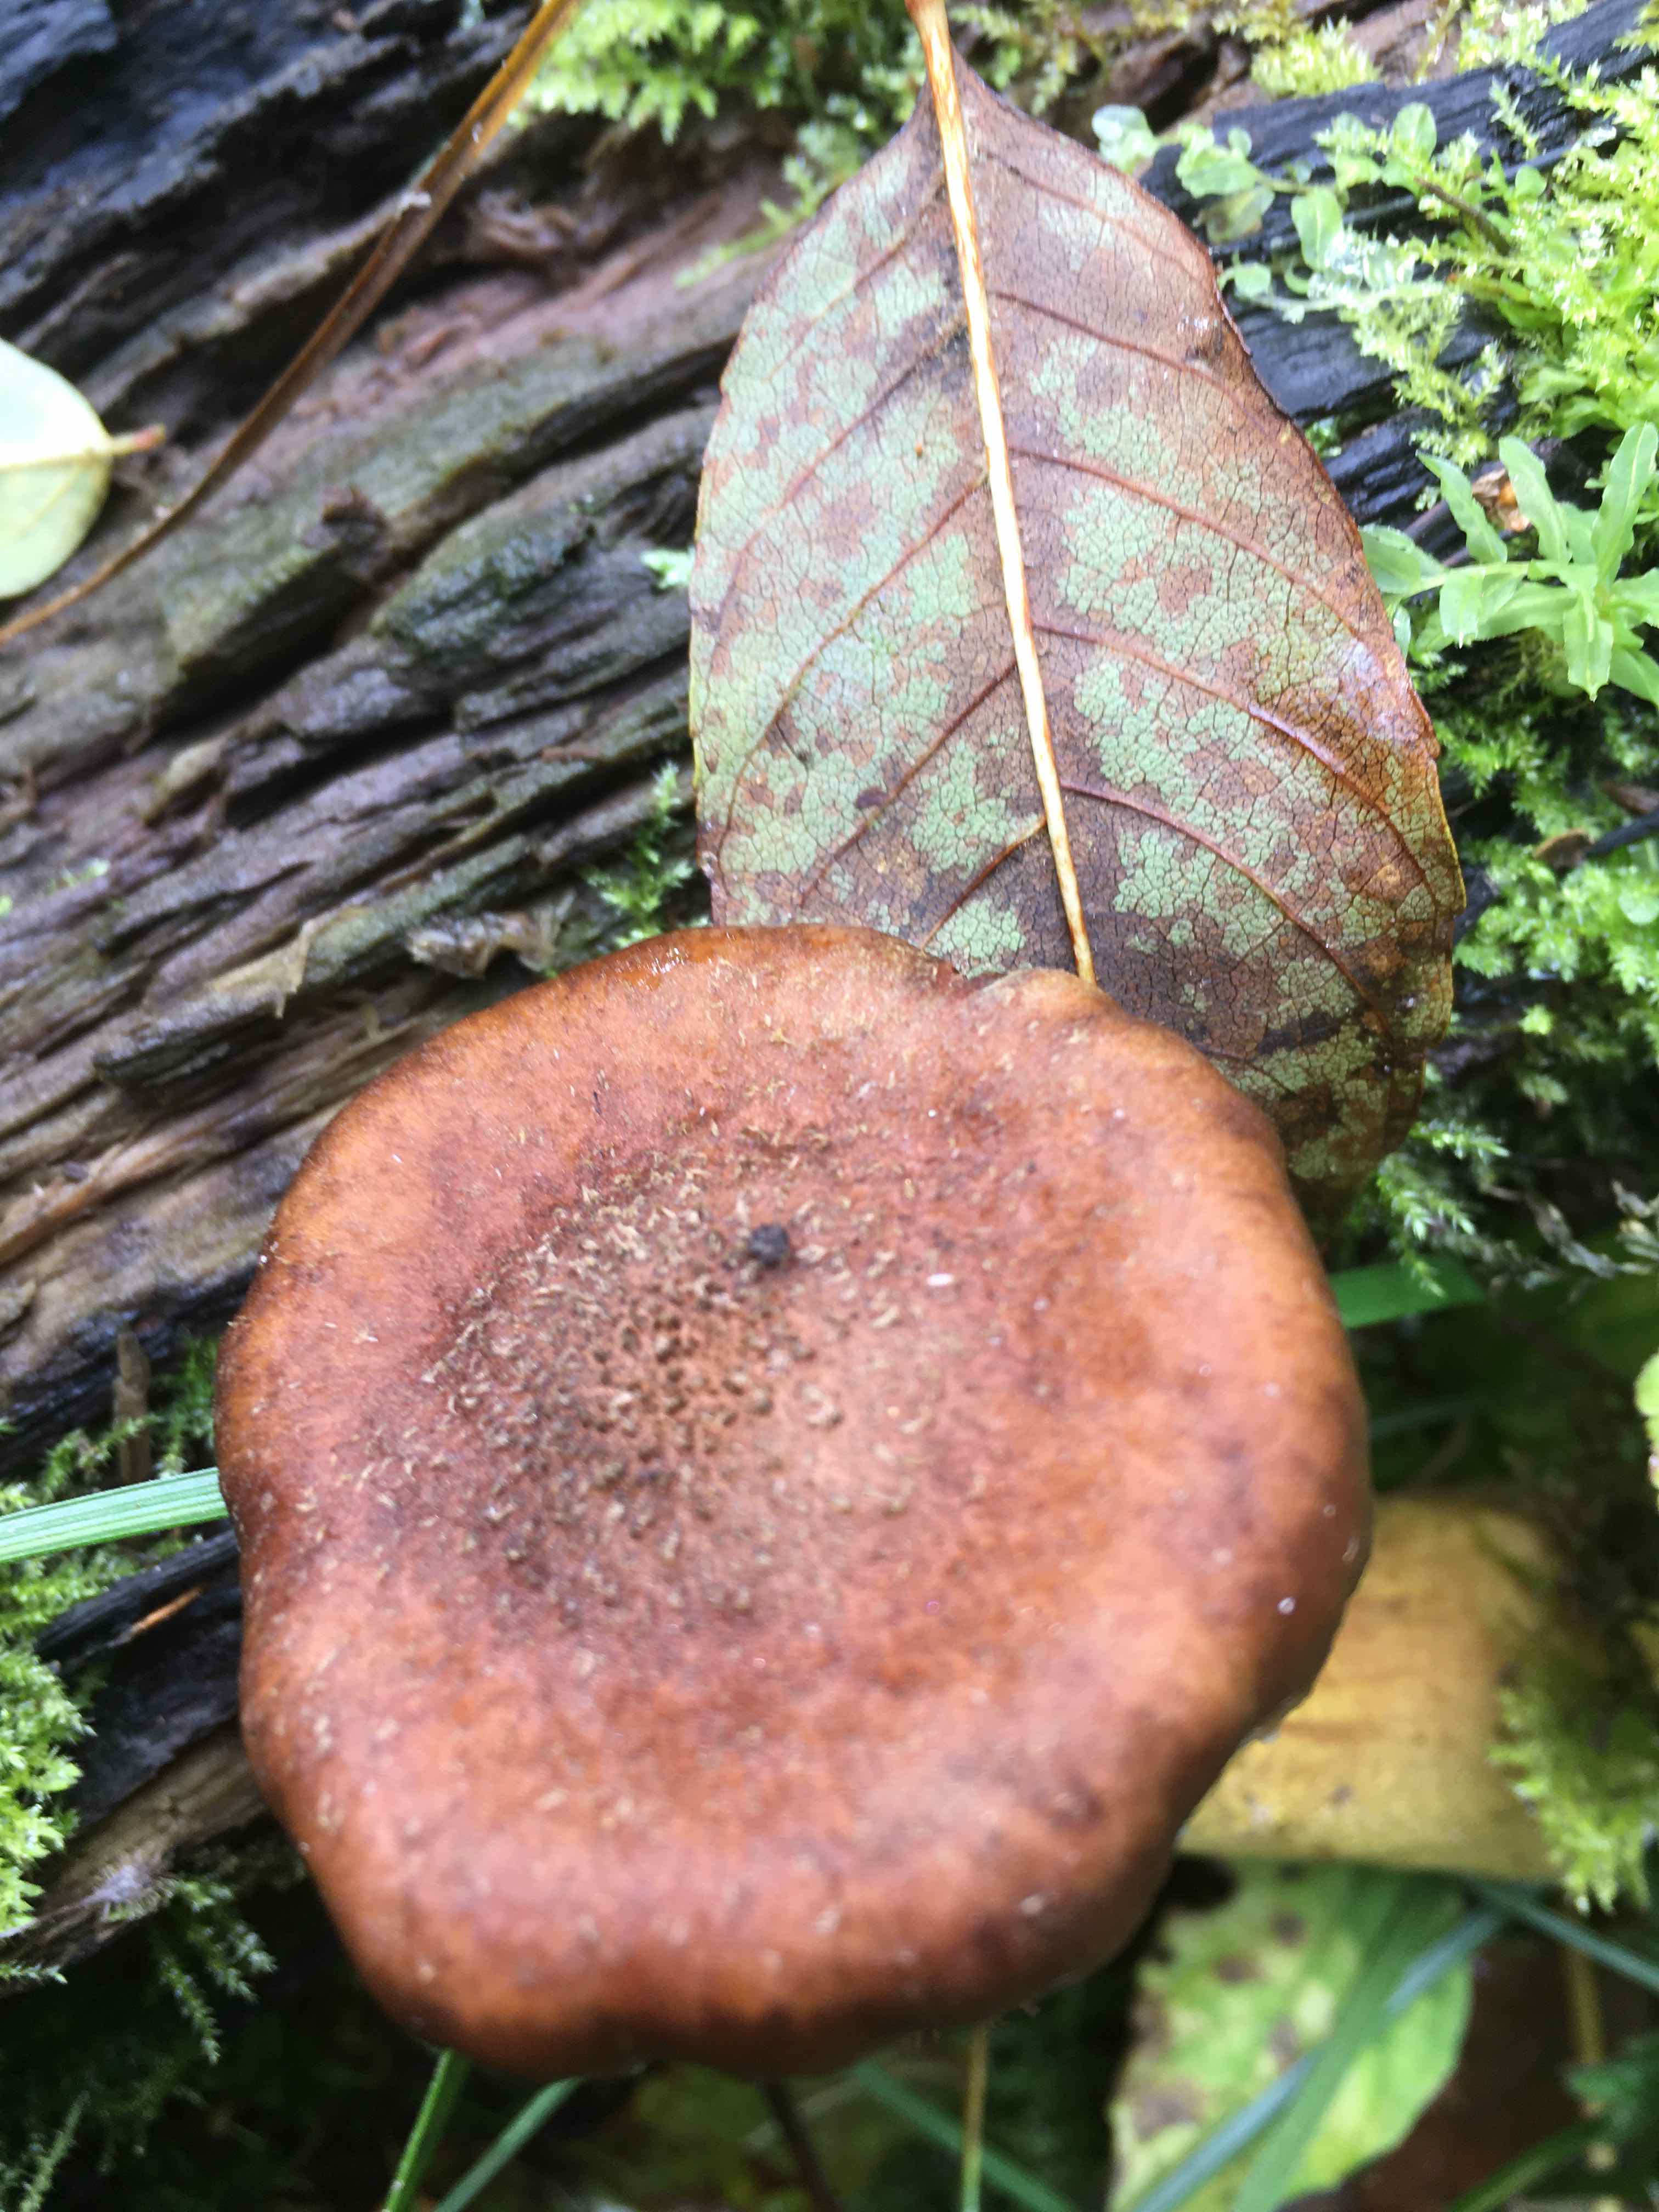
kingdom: Fungi
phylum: Basidiomycota
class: Agaricomycetes
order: Agaricales
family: Physalacriaceae
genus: Armillaria
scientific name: Armillaria lutea
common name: køllestokket honningsvamp
